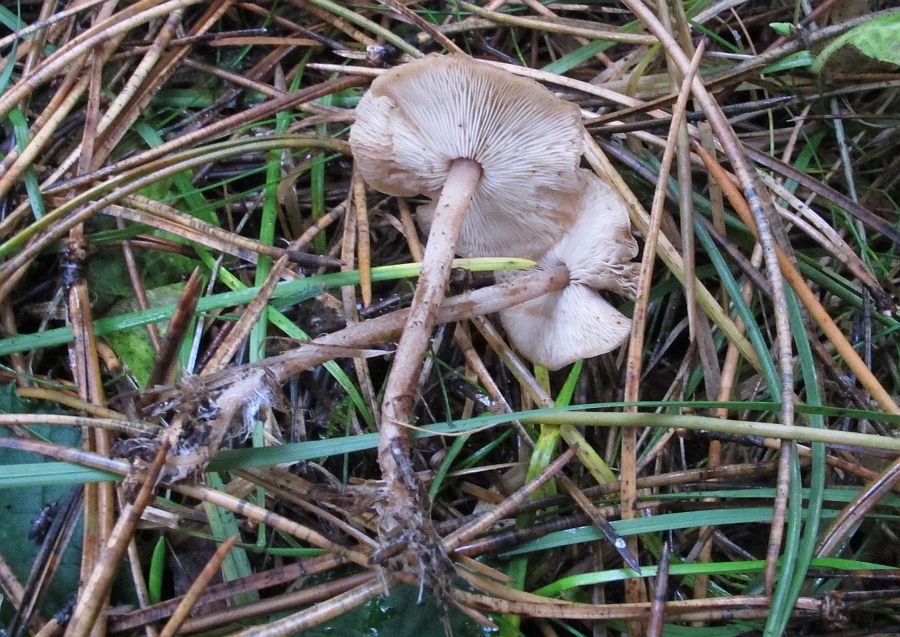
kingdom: Fungi
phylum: Basidiomycota
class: Agaricomycetes
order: Agaricales
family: Marasmiaceae
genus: Baeospora
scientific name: Baeospora myosura
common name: koglebruskhat
